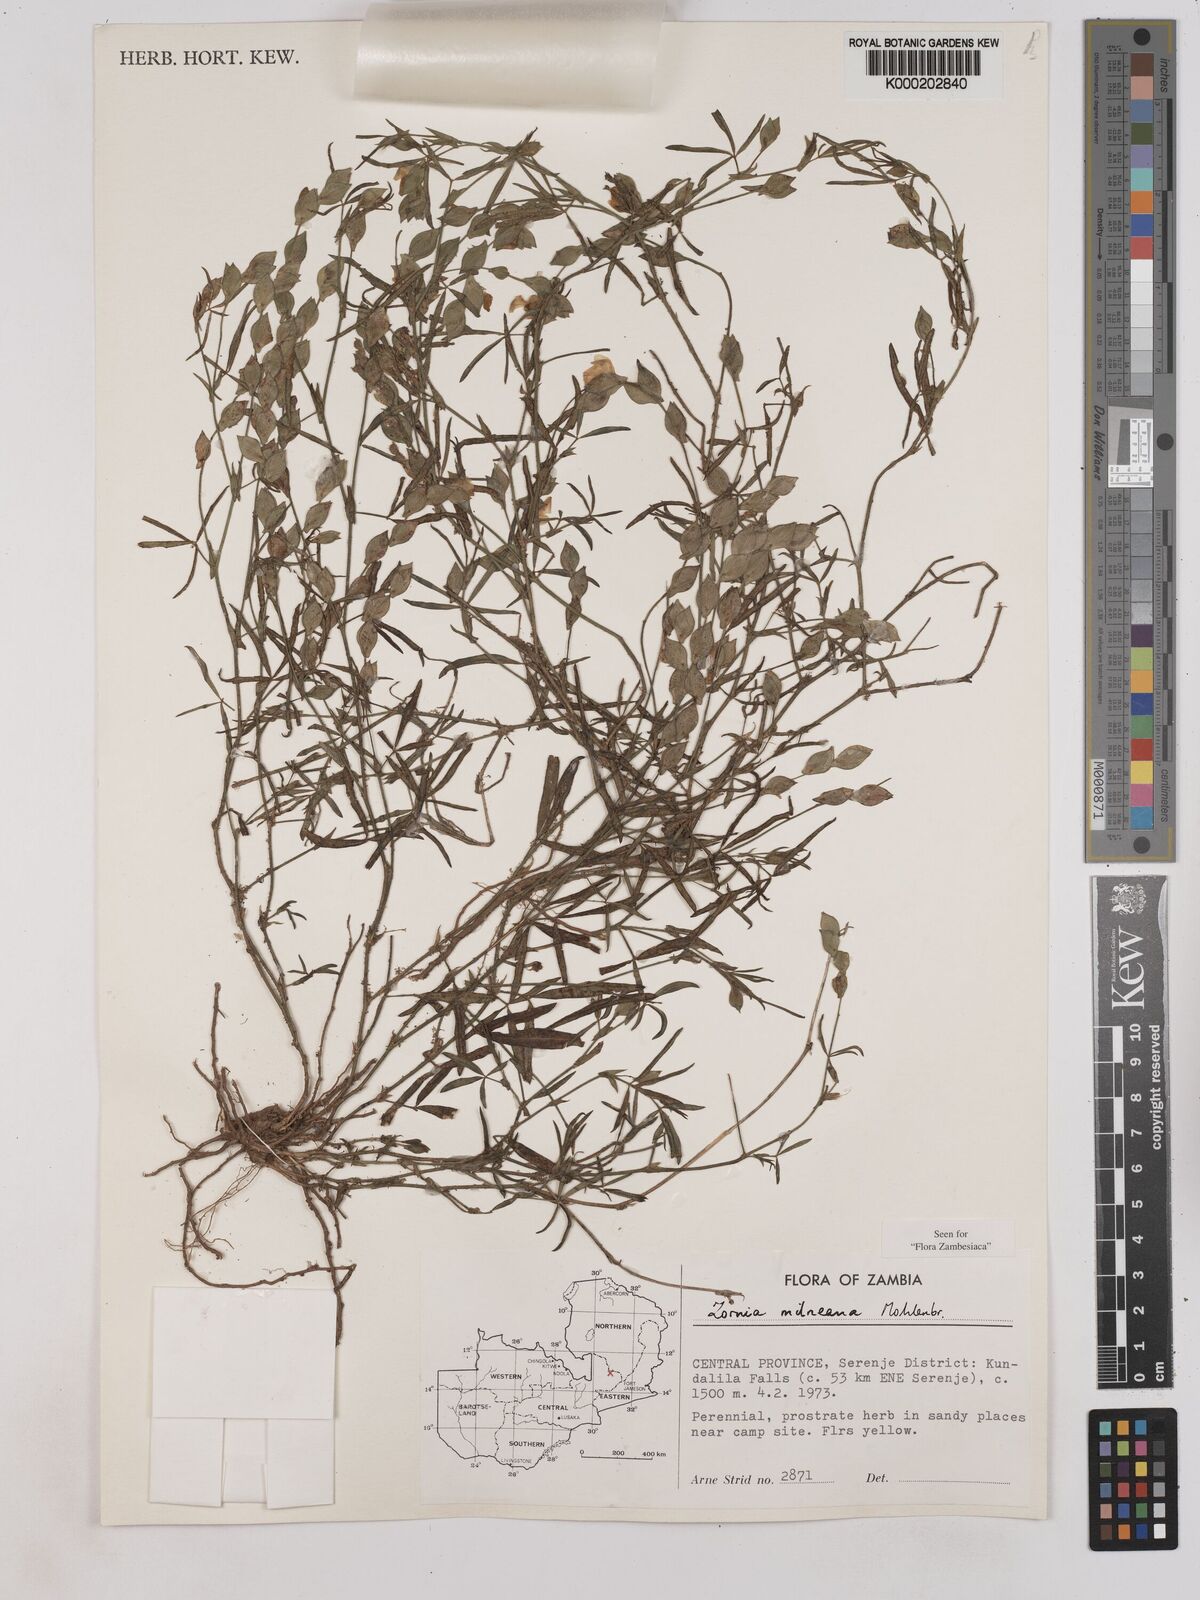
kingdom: Plantae
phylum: Tracheophyta
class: Magnoliopsida
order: Fabales
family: Fabaceae
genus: Zornia
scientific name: Zornia milneana
